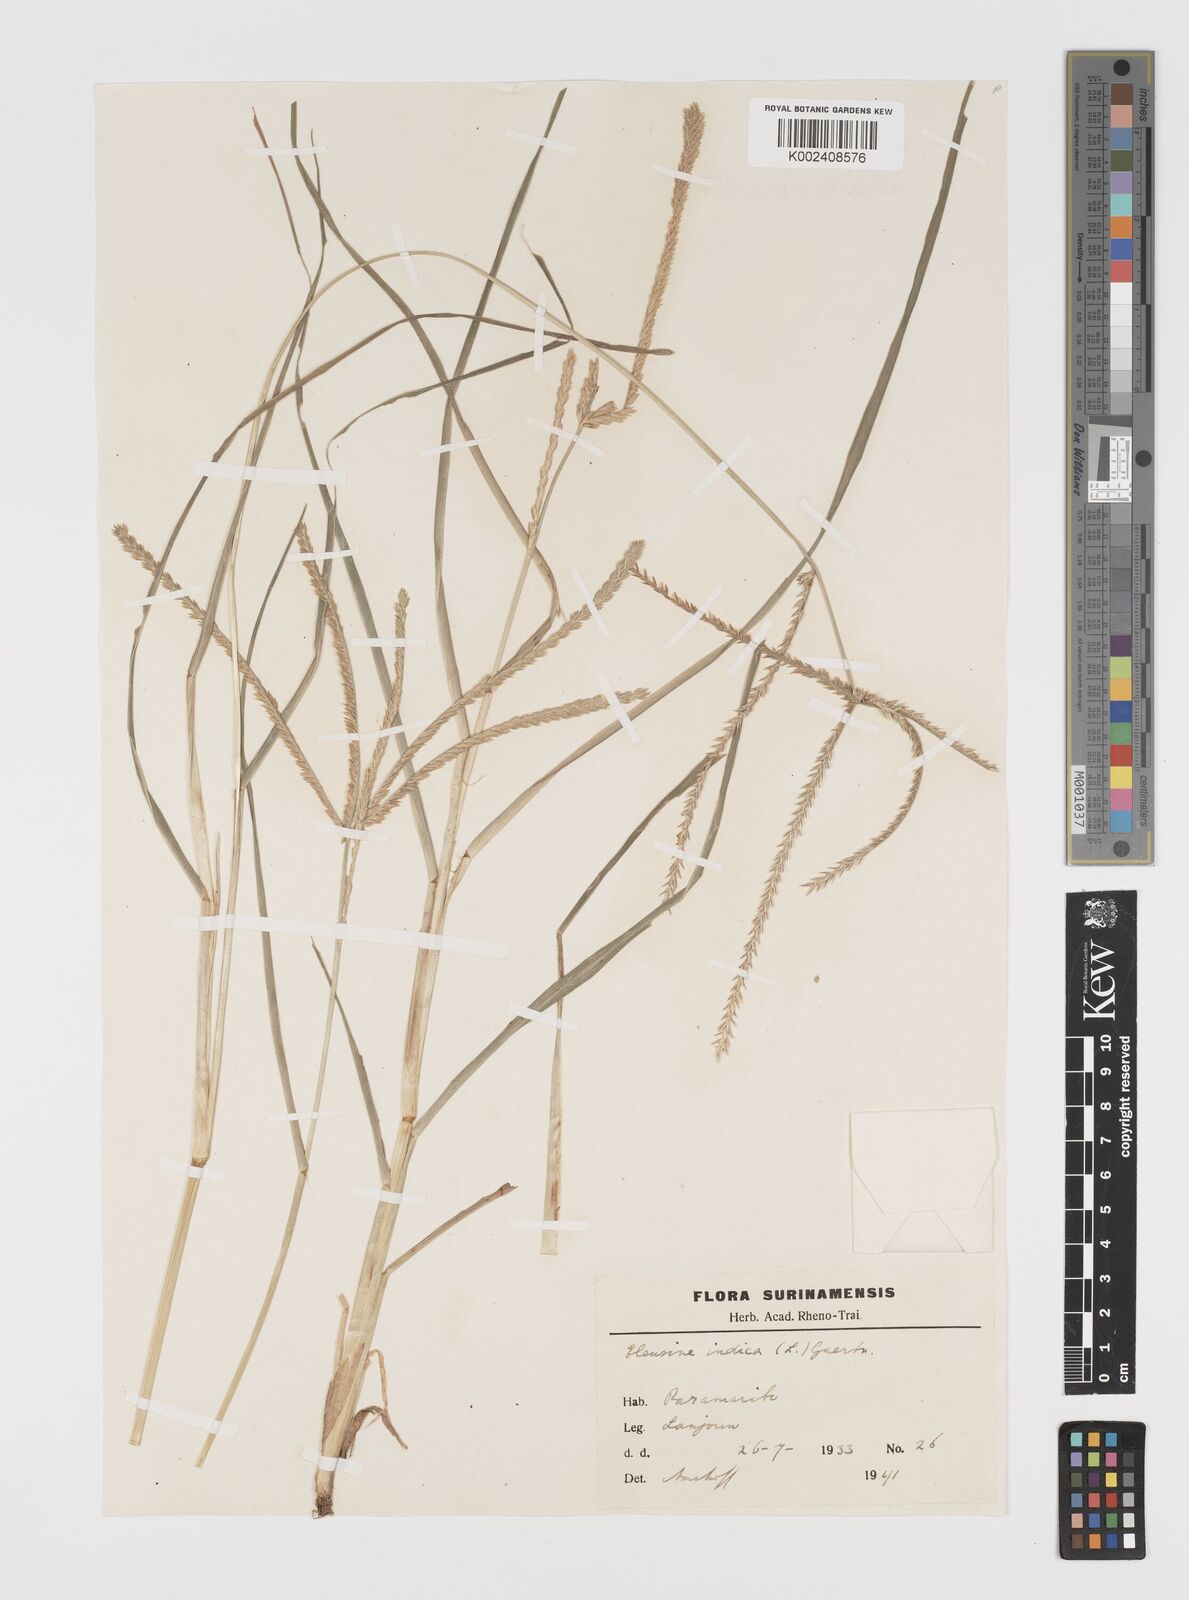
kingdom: Plantae
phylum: Tracheophyta
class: Liliopsida
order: Poales
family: Poaceae
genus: Eleusine
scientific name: Eleusine indica
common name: Yard-grass
